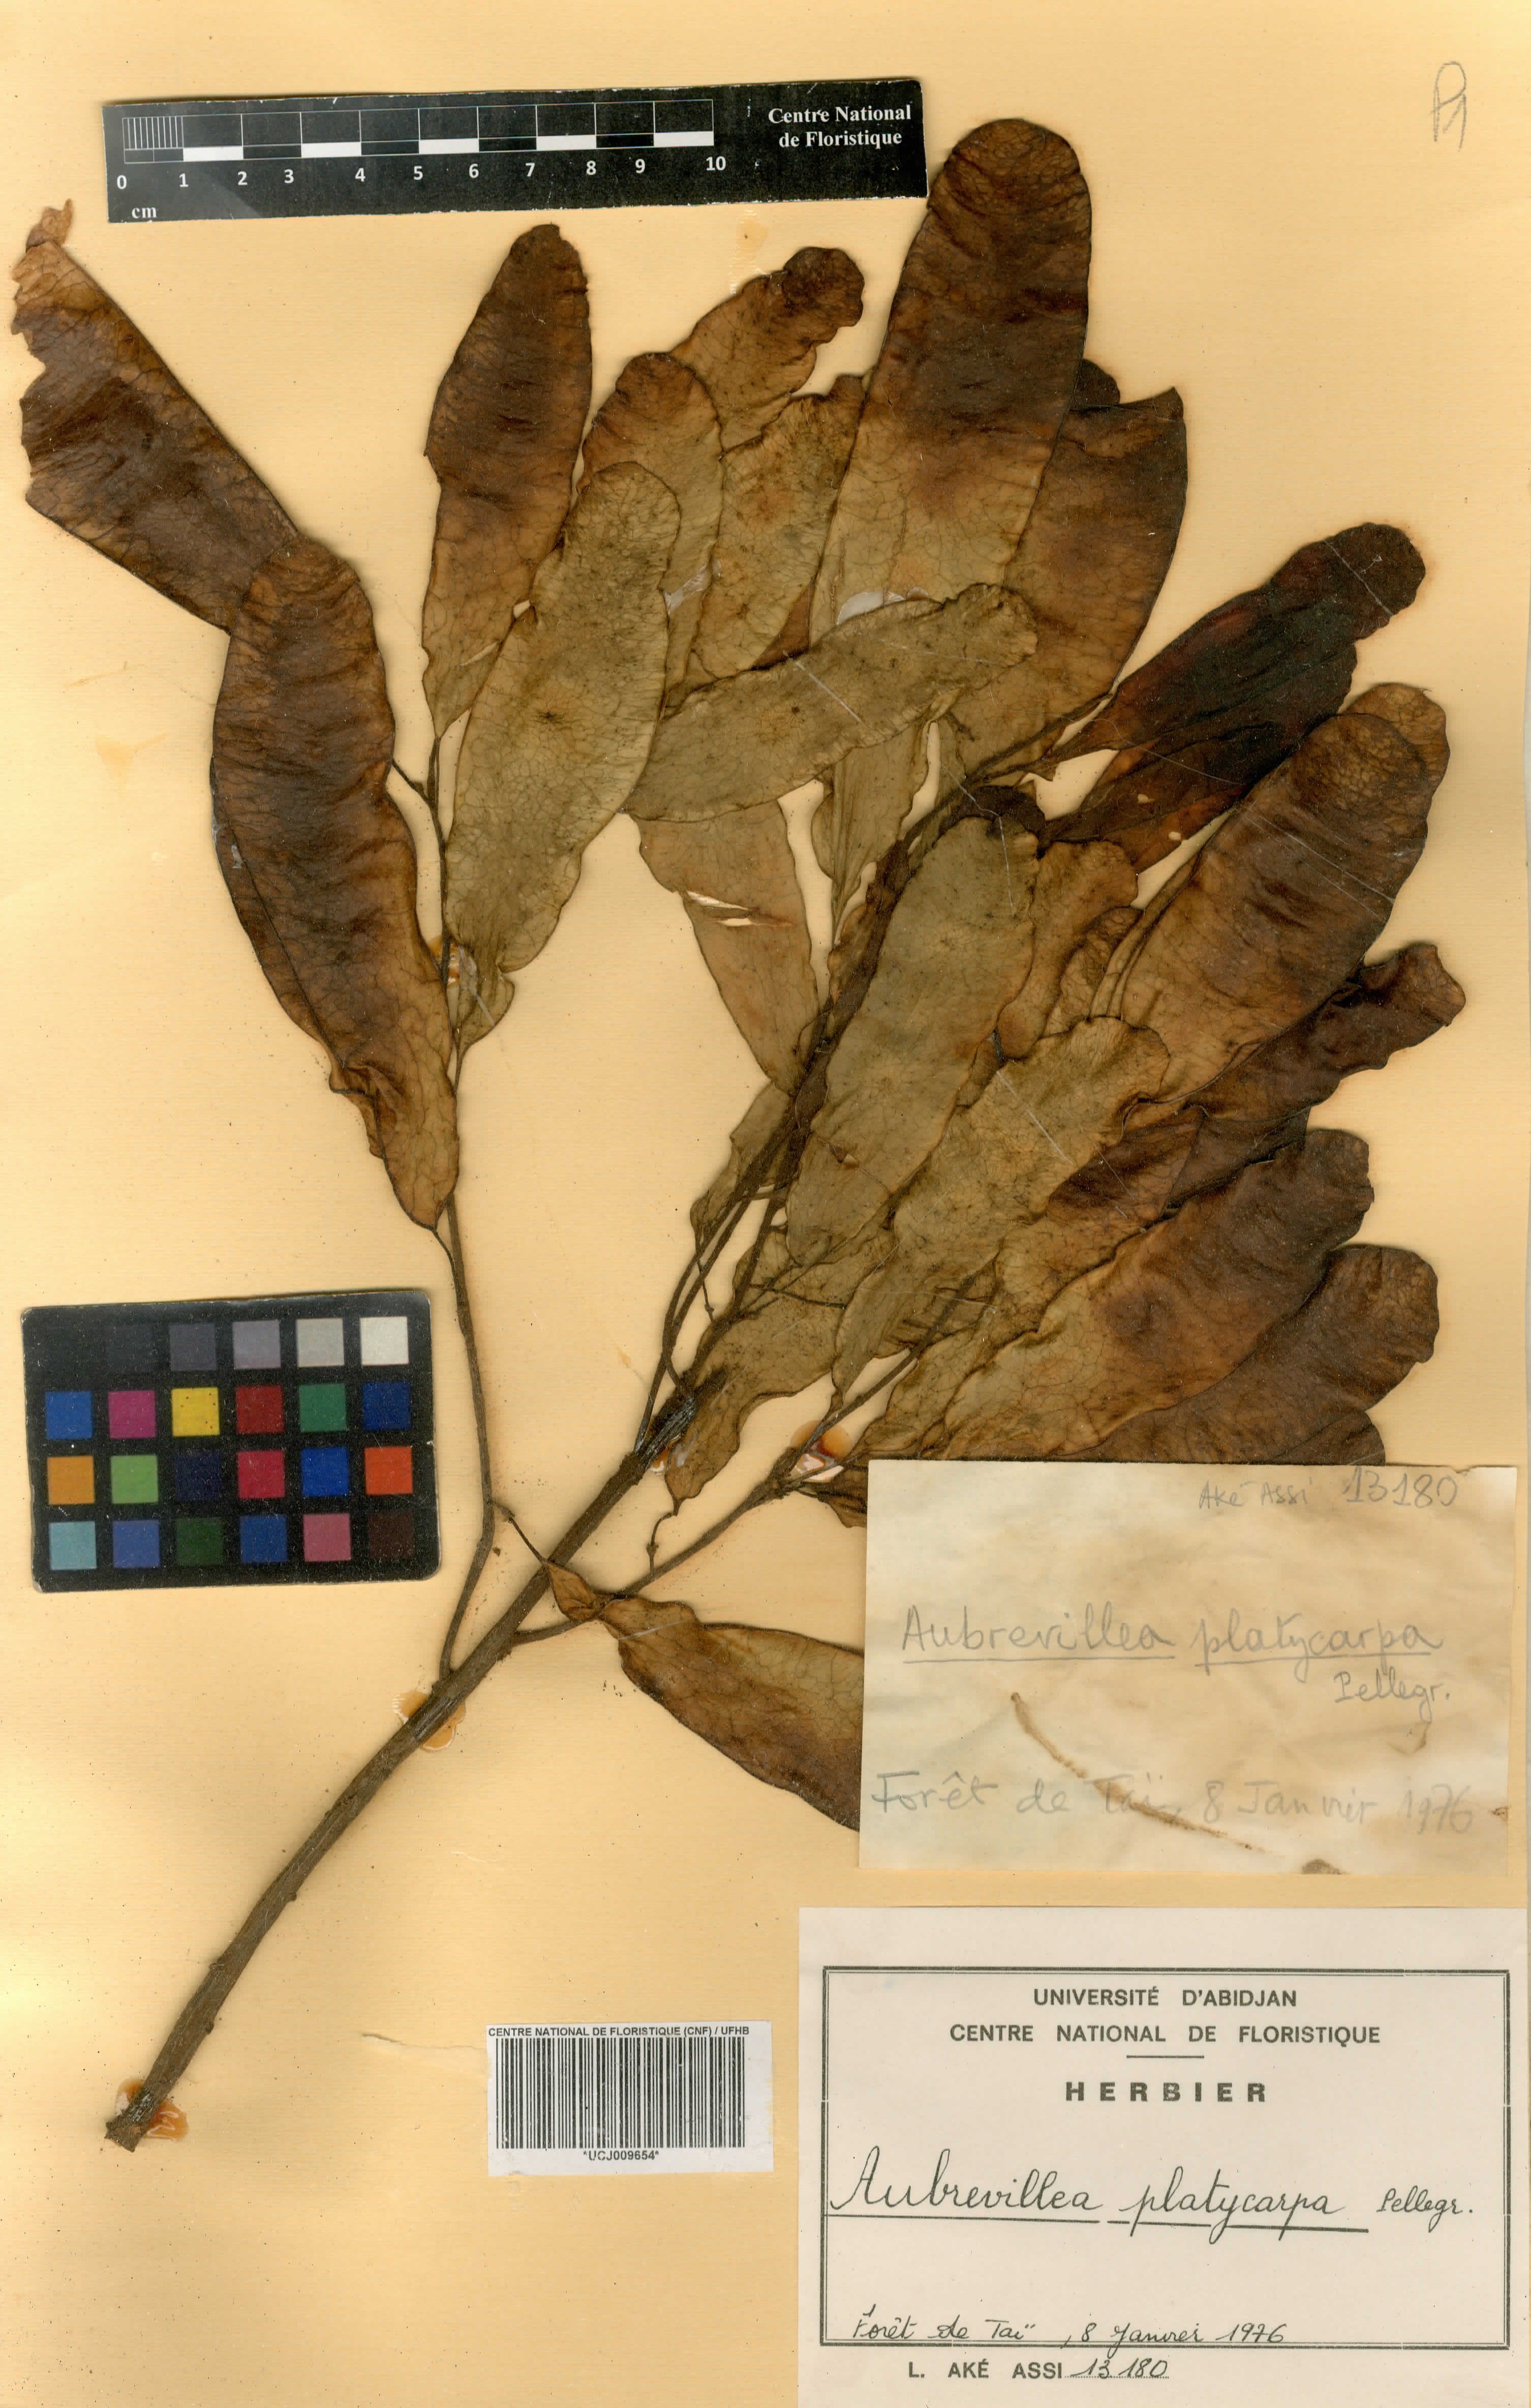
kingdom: Plantae
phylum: Tracheophyta
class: Magnoliopsida
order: Fabales
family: Fabaceae
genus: Aubrevillea
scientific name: Aubrevillea platicarpa
